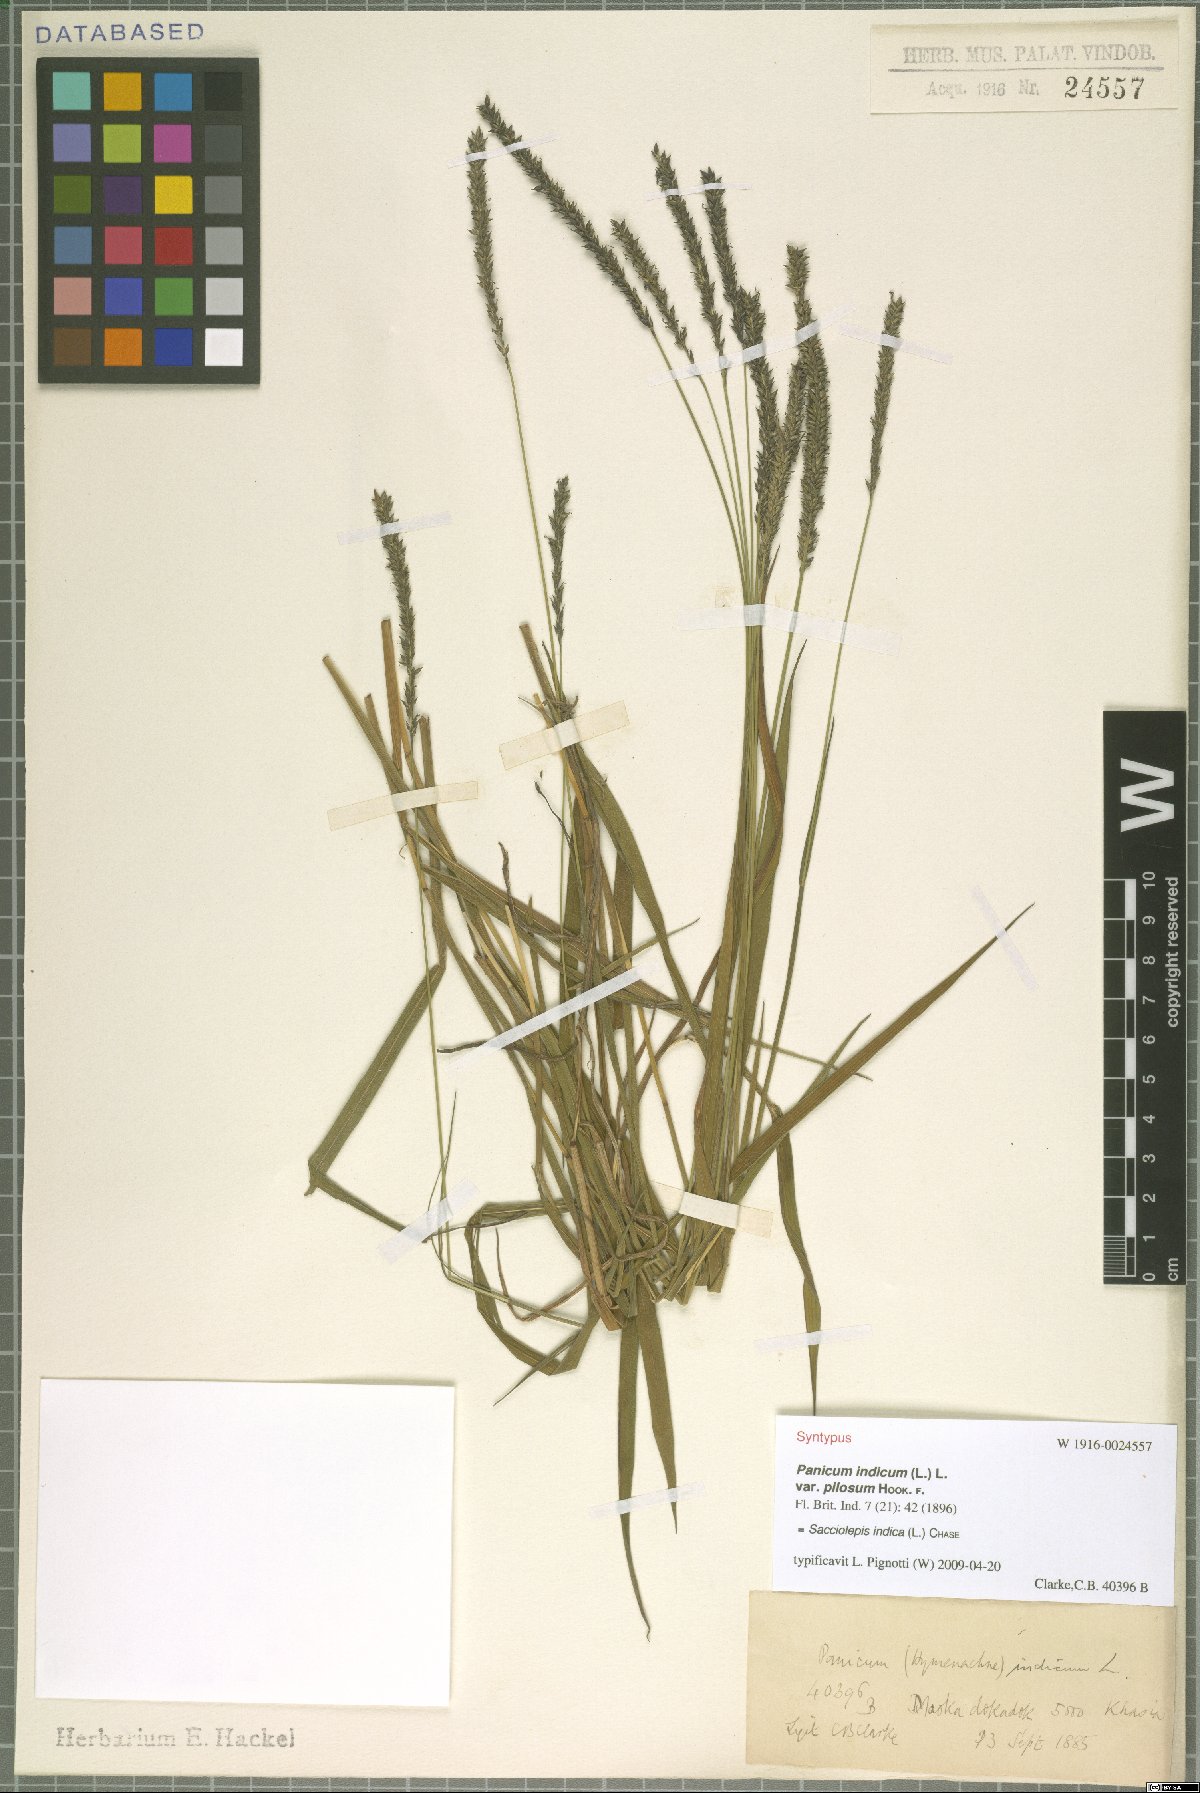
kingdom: Plantae
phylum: Tracheophyta
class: Liliopsida
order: Poales
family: Poaceae
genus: Sacciolepis
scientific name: Sacciolepis indica
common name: Glenwoodgrass
